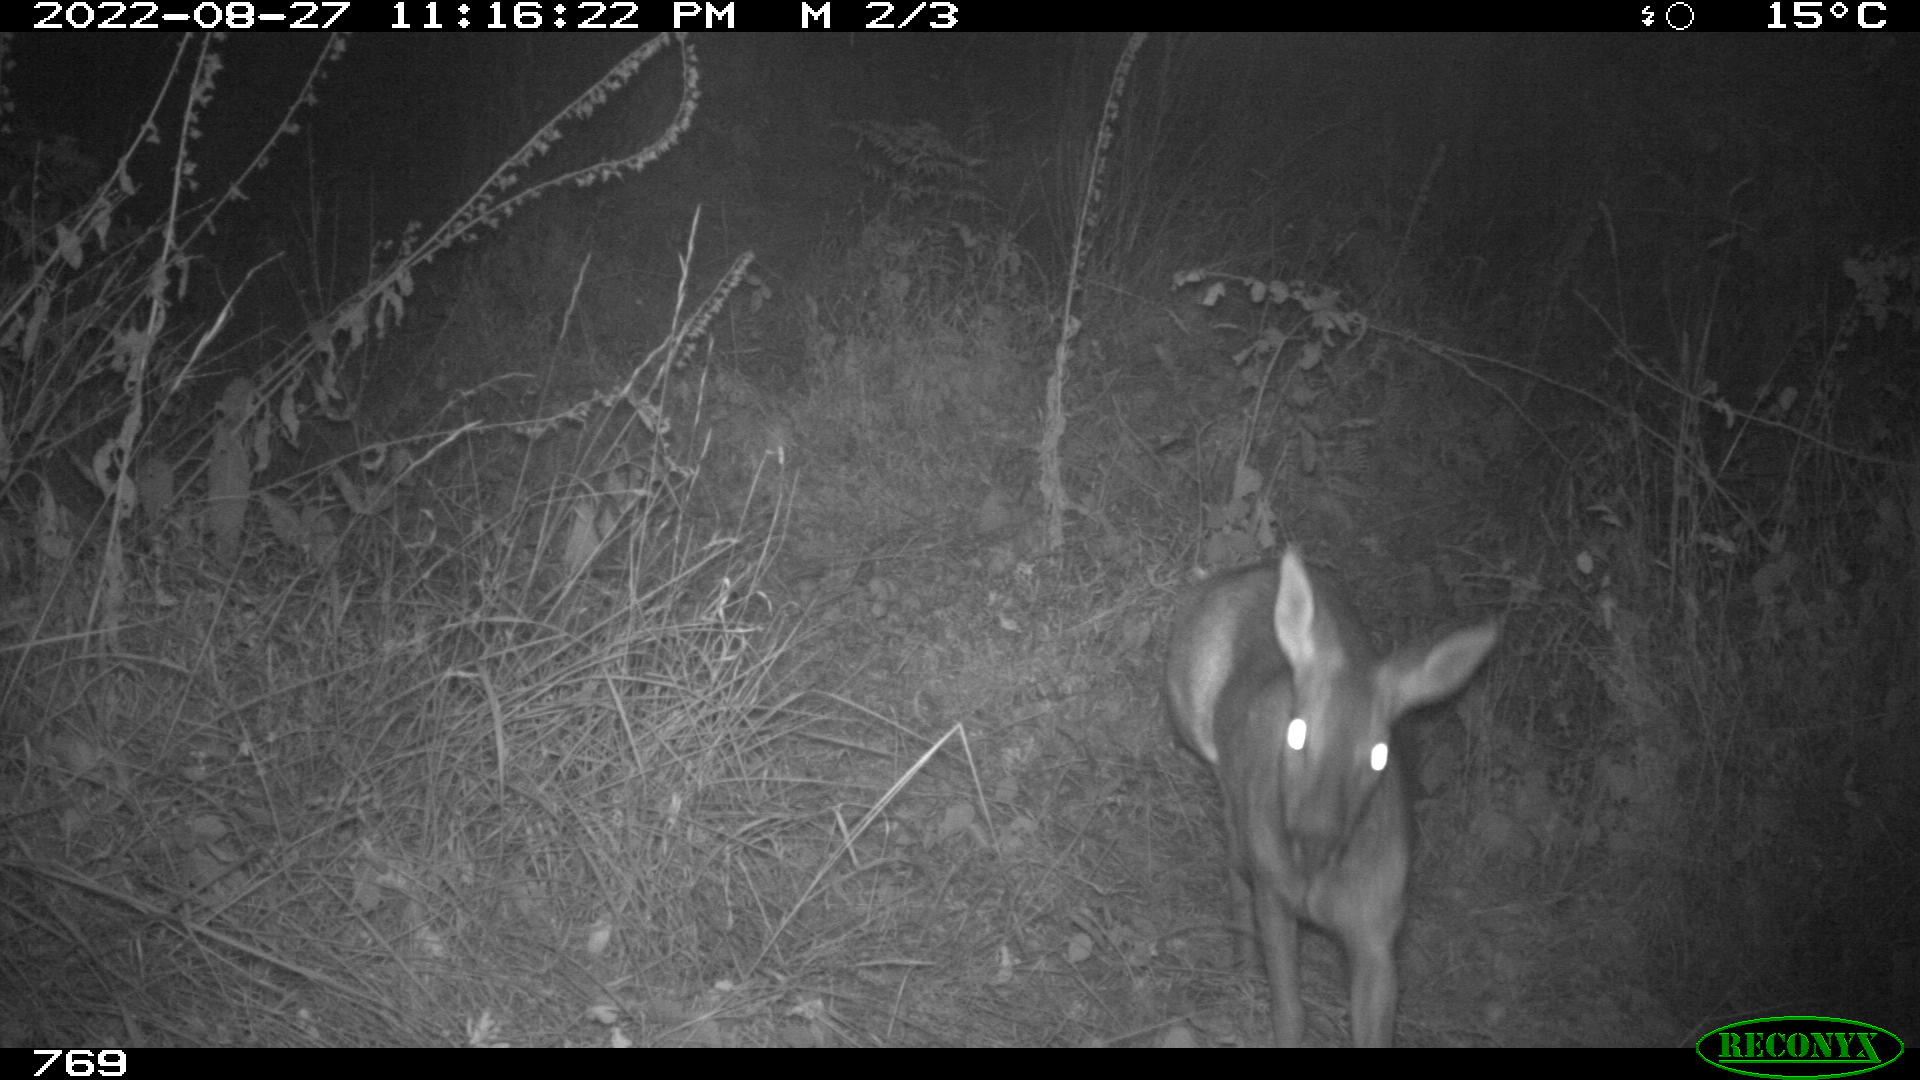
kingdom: Animalia
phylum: Chordata
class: Mammalia
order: Artiodactyla
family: Cervidae
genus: Capreolus
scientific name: Capreolus capreolus
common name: Western roe deer
